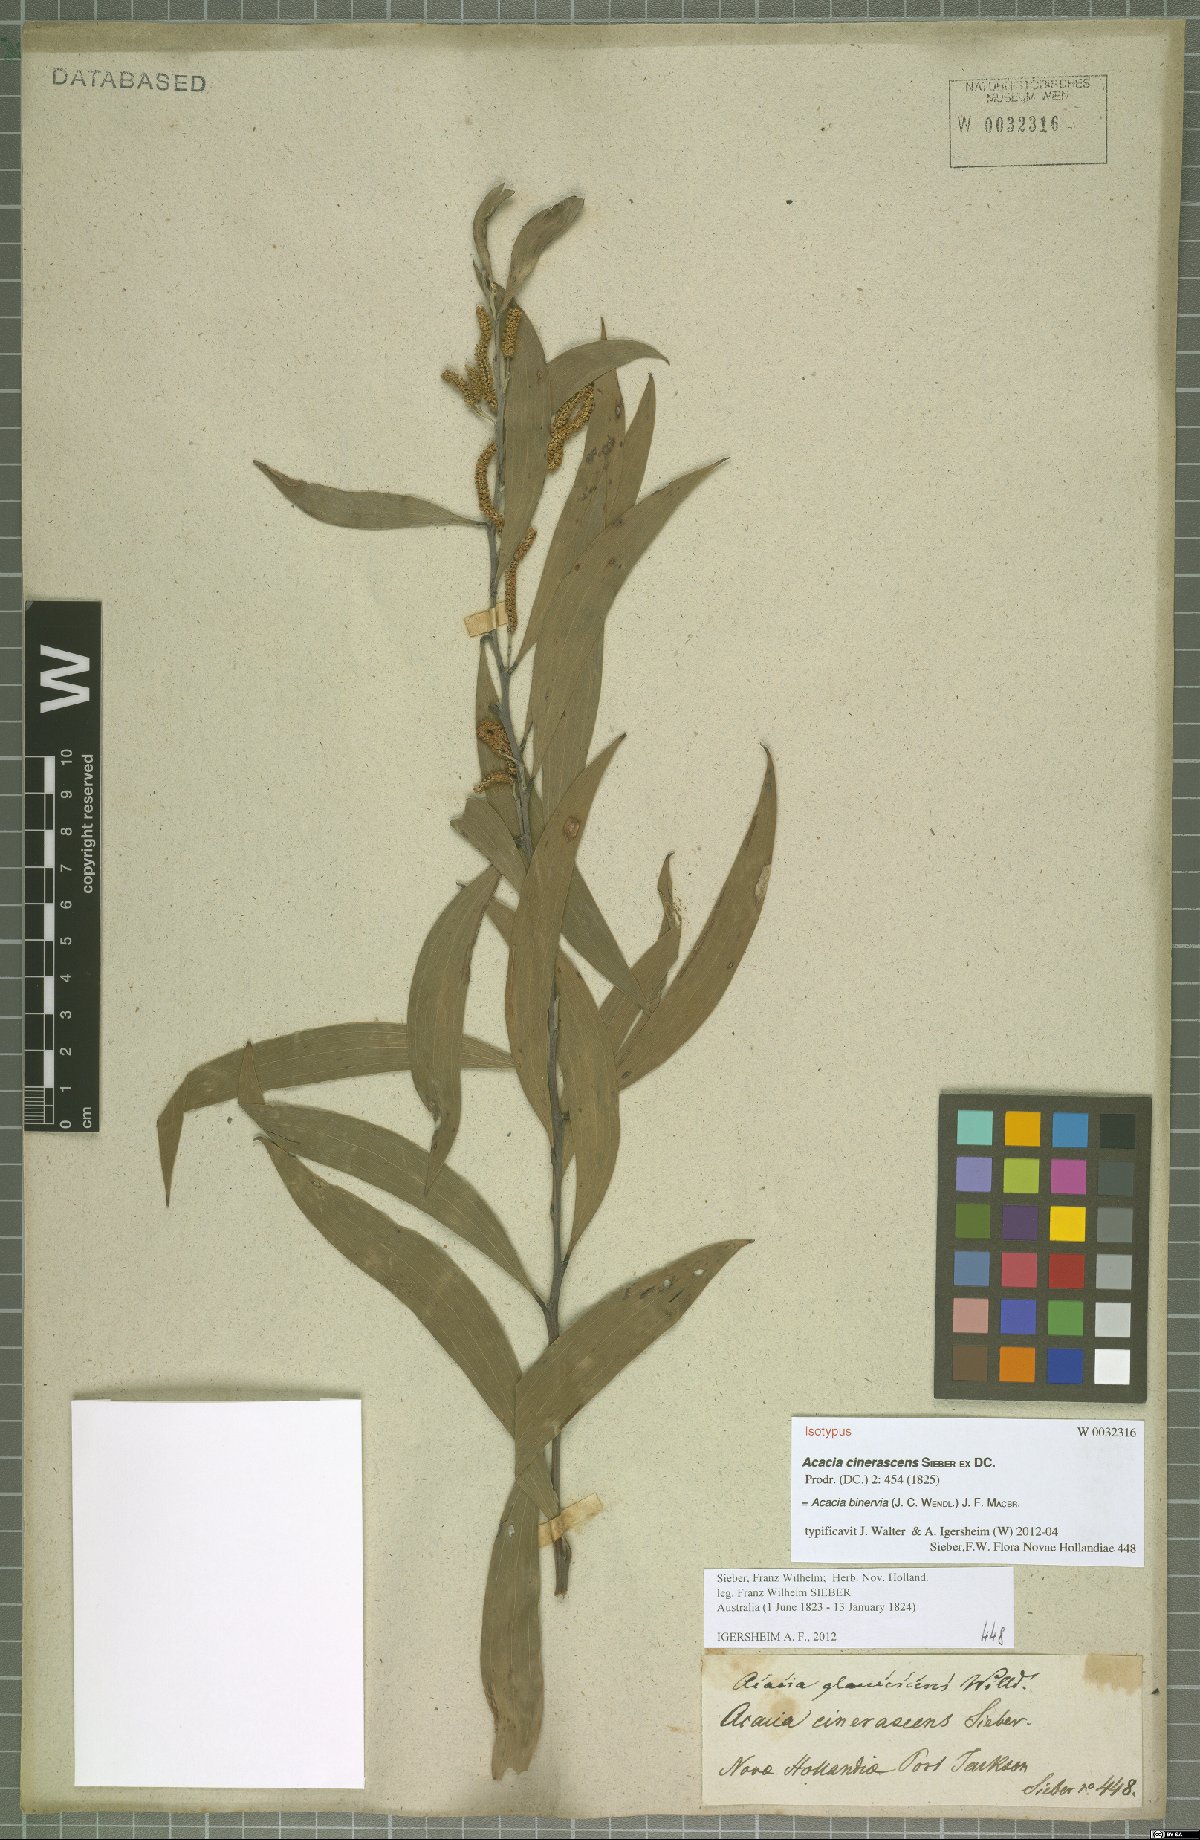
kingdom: Plantae
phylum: Tracheophyta
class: Magnoliopsida
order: Fabales
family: Fabaceae
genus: Acacia
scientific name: Acacia binervia
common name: Coast myall
